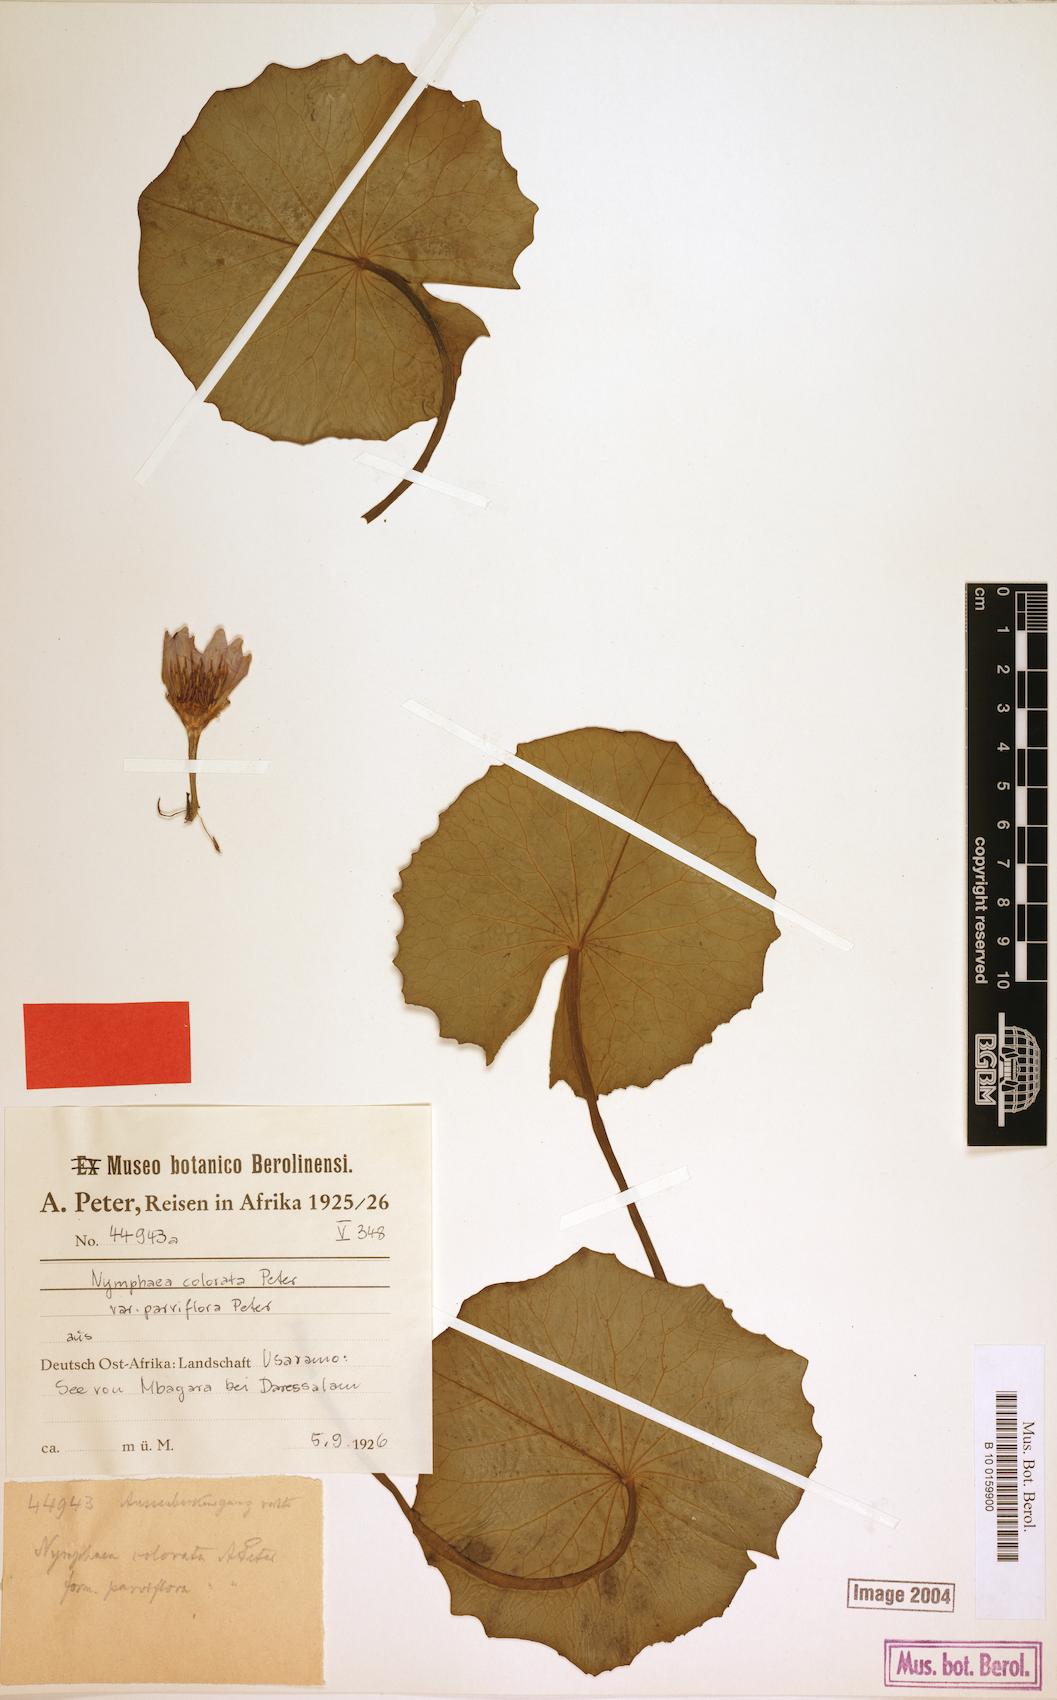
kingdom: Plantae
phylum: Tracheophyta
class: Magnoliopsida
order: Nymphaeales
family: Nymphaeaceae
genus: Nymphaea
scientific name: Nymphaea nouchali
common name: Blue lotus
